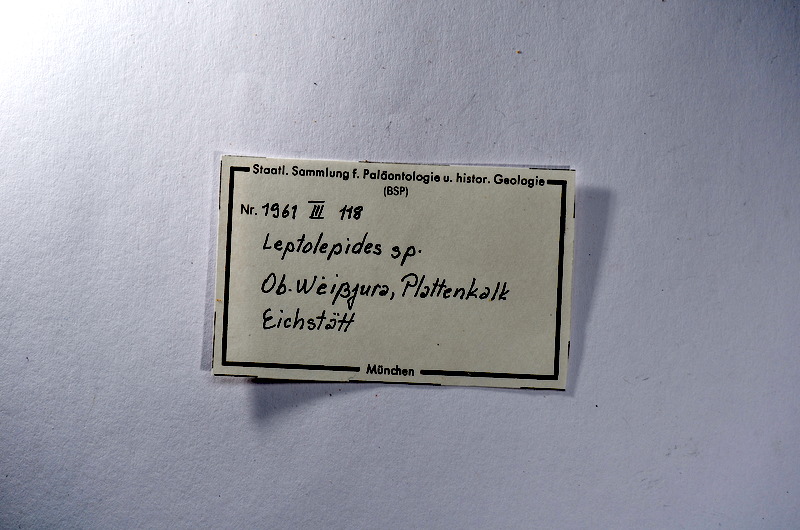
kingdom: Animalia
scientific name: Animalia
